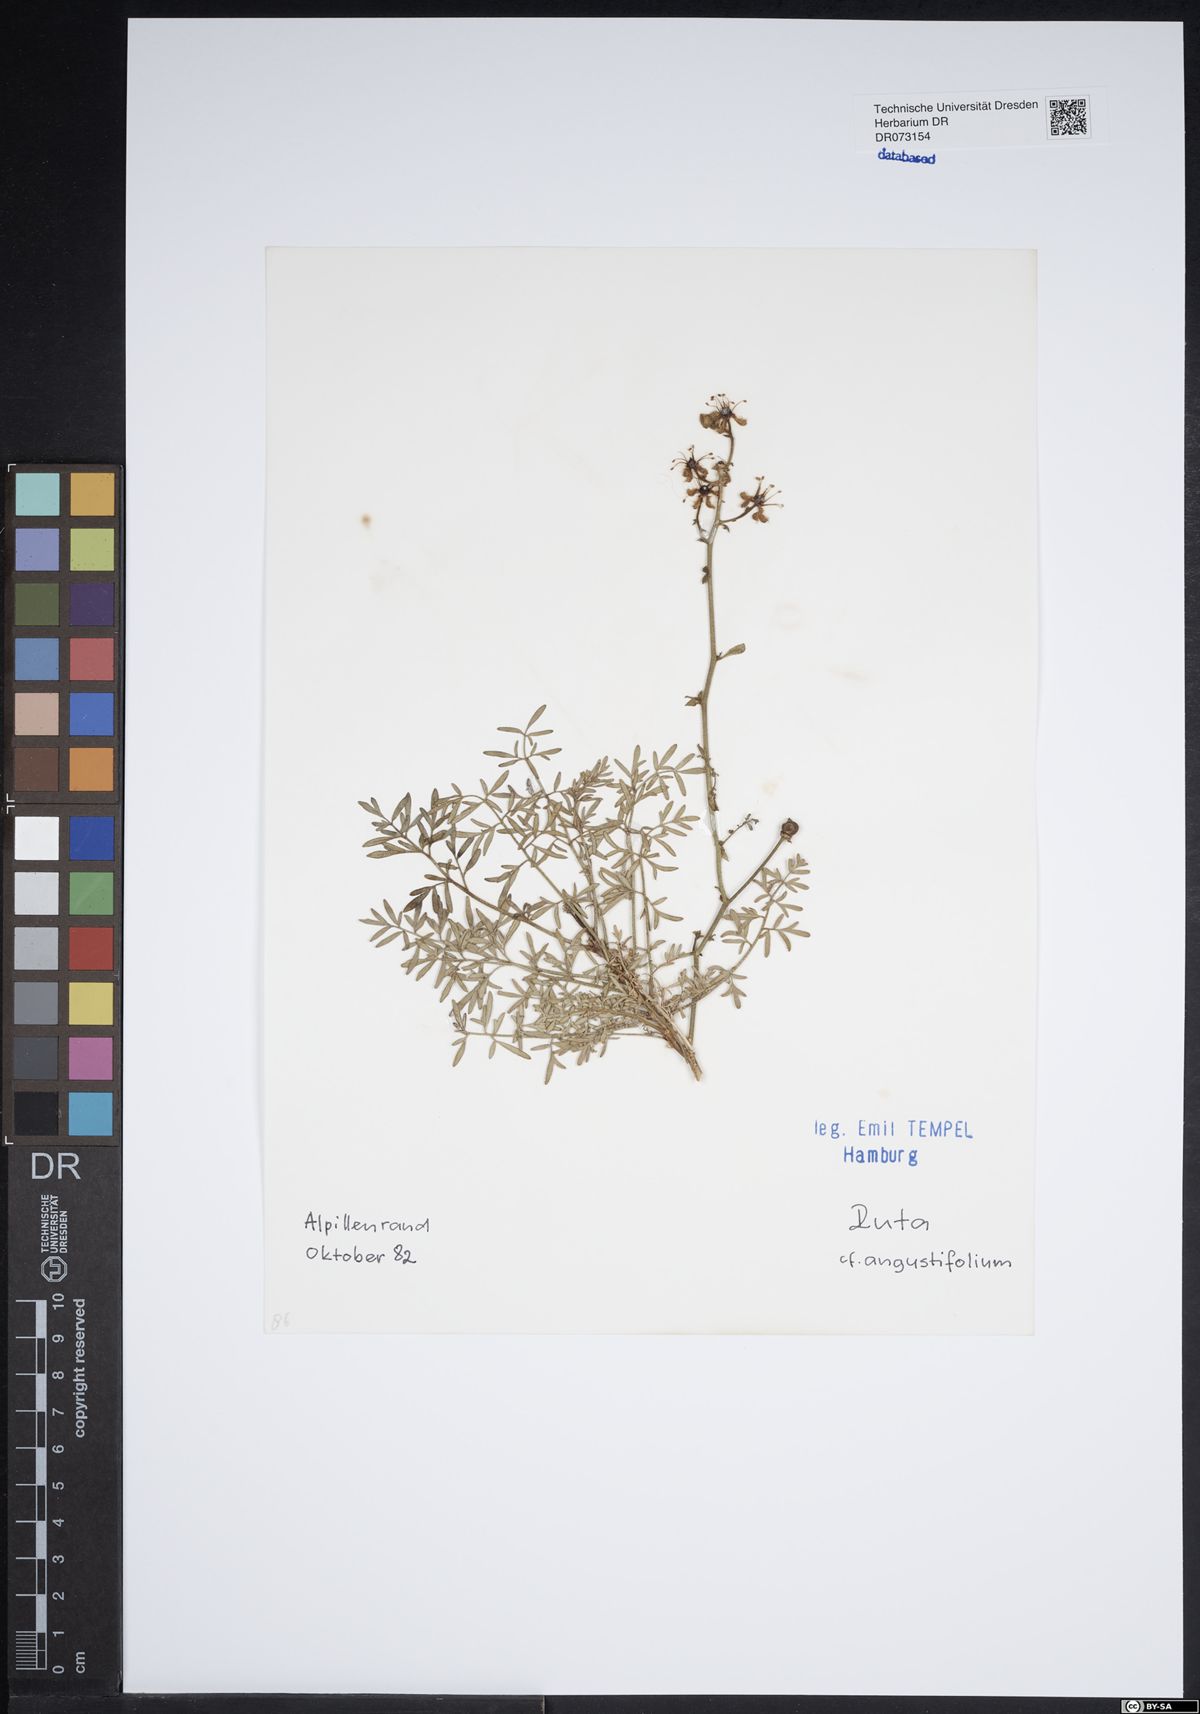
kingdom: Plantae
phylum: Tracheophyta
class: Magnoliopsida
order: Sapindales
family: Rutaceae
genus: Ruta
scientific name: Ruta angustifolia
